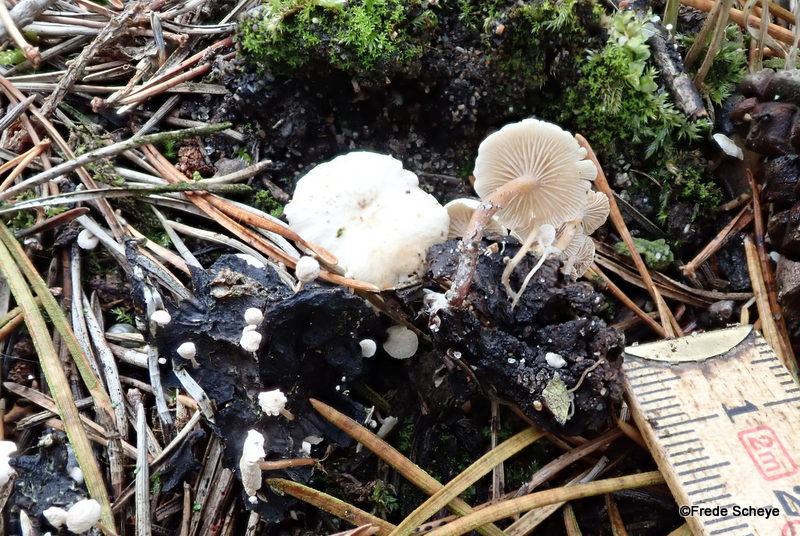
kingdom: Fungi
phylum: Basidiomycota
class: Agaricomycetes
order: Agaricales
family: Tricholomataceae
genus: Collybia
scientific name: Collybia cirrhata
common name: silke-lighat
